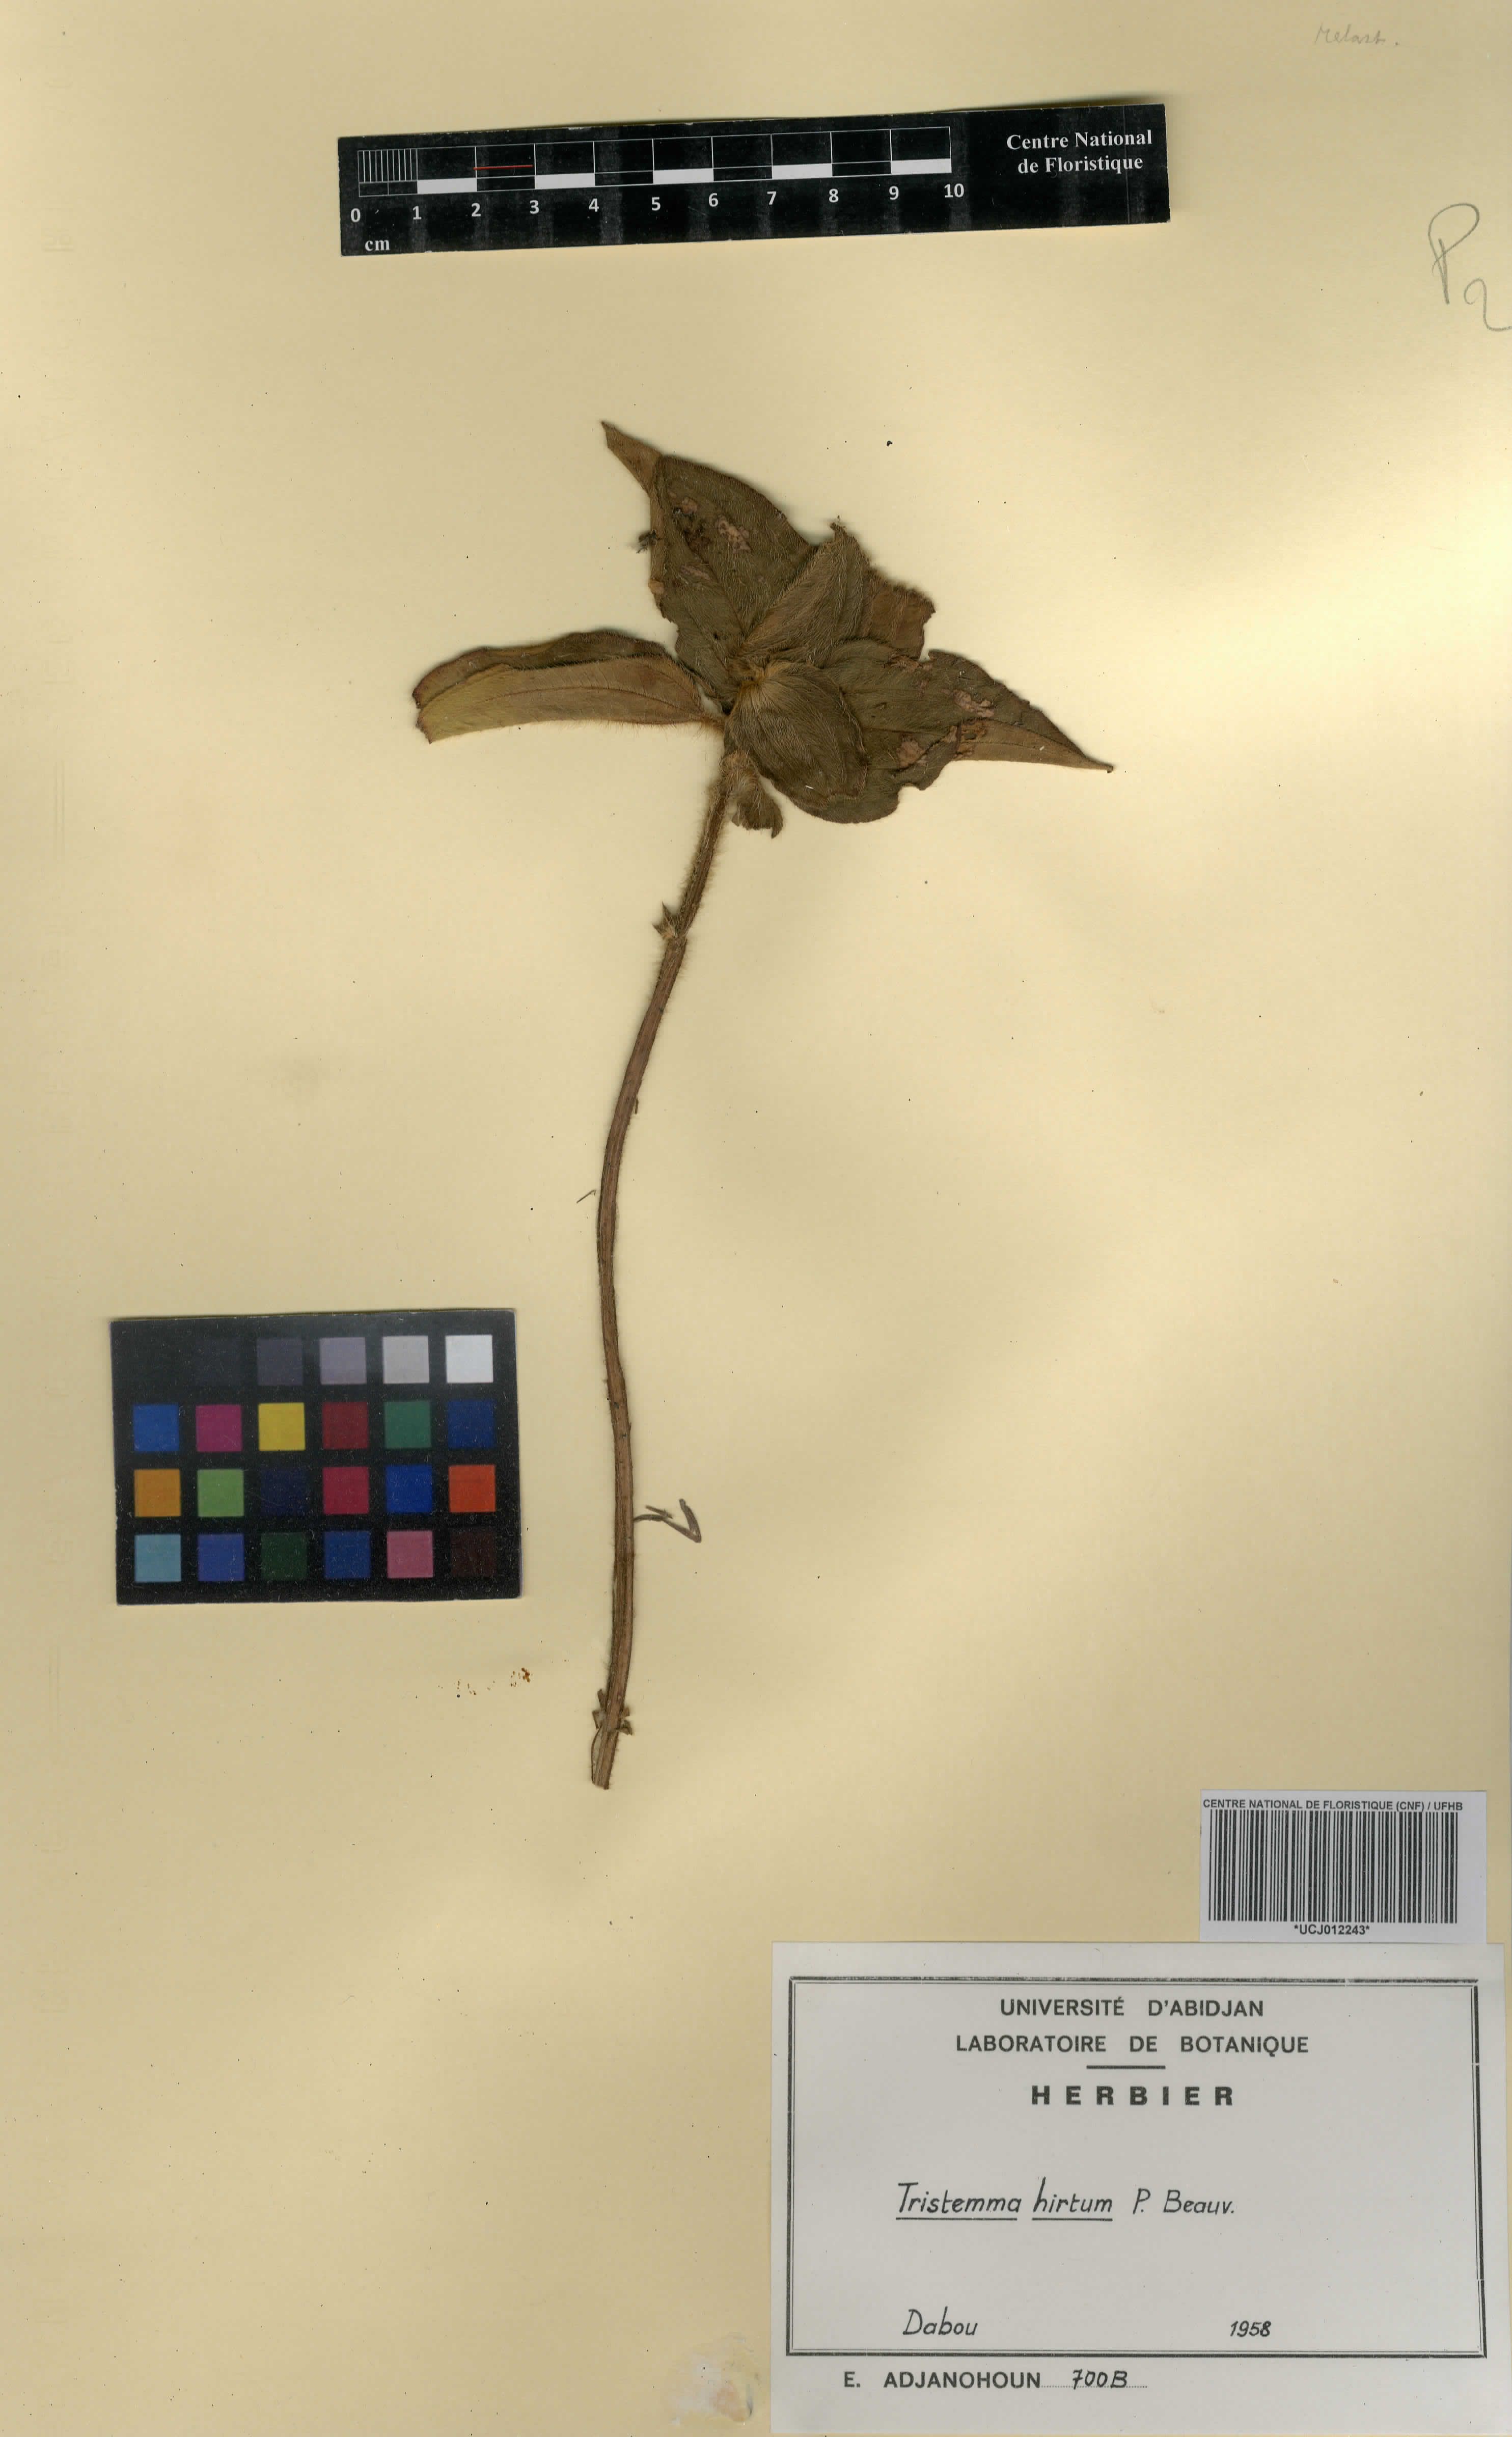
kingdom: Plantae
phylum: Tracheophyta
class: Magnoliopsida
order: Myrtales
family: Melastomataceae
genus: Tristemma
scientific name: Tristemma hirtum
